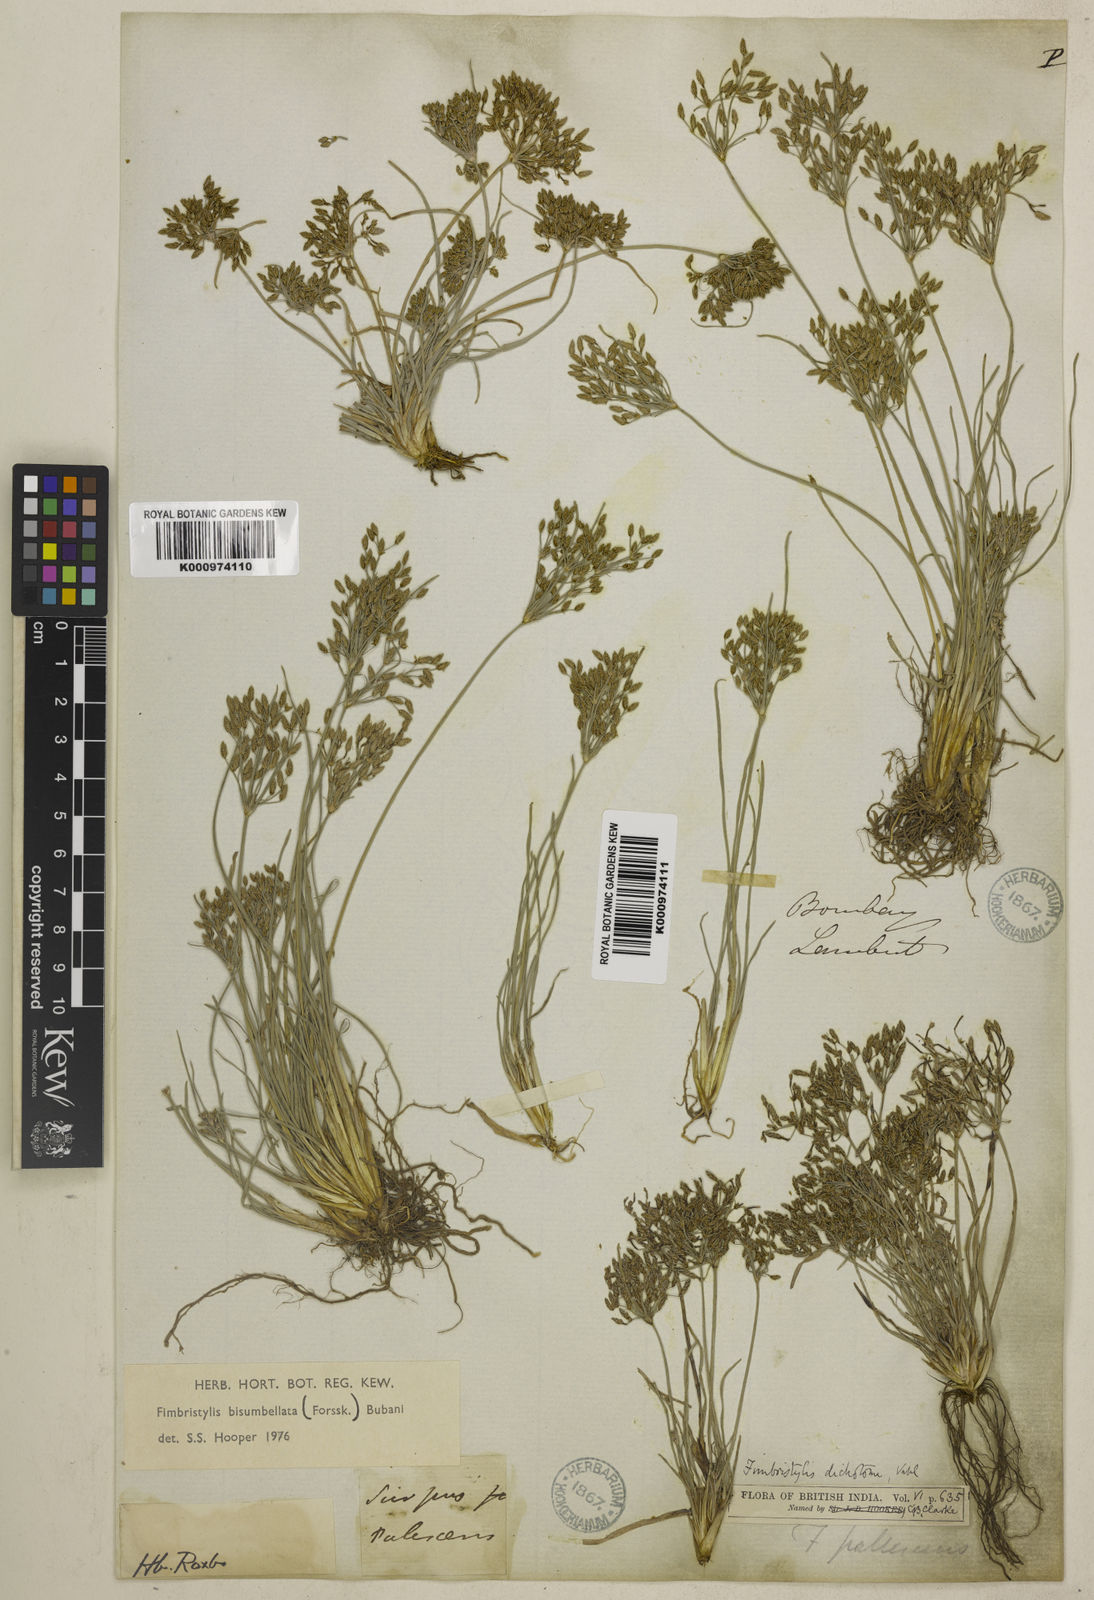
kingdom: Plantae
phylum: Tracheophyta
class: Liliopsida
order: Poales
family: Cyperaceae
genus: Fimbristylis
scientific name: Fimbristylis bisumbellata
